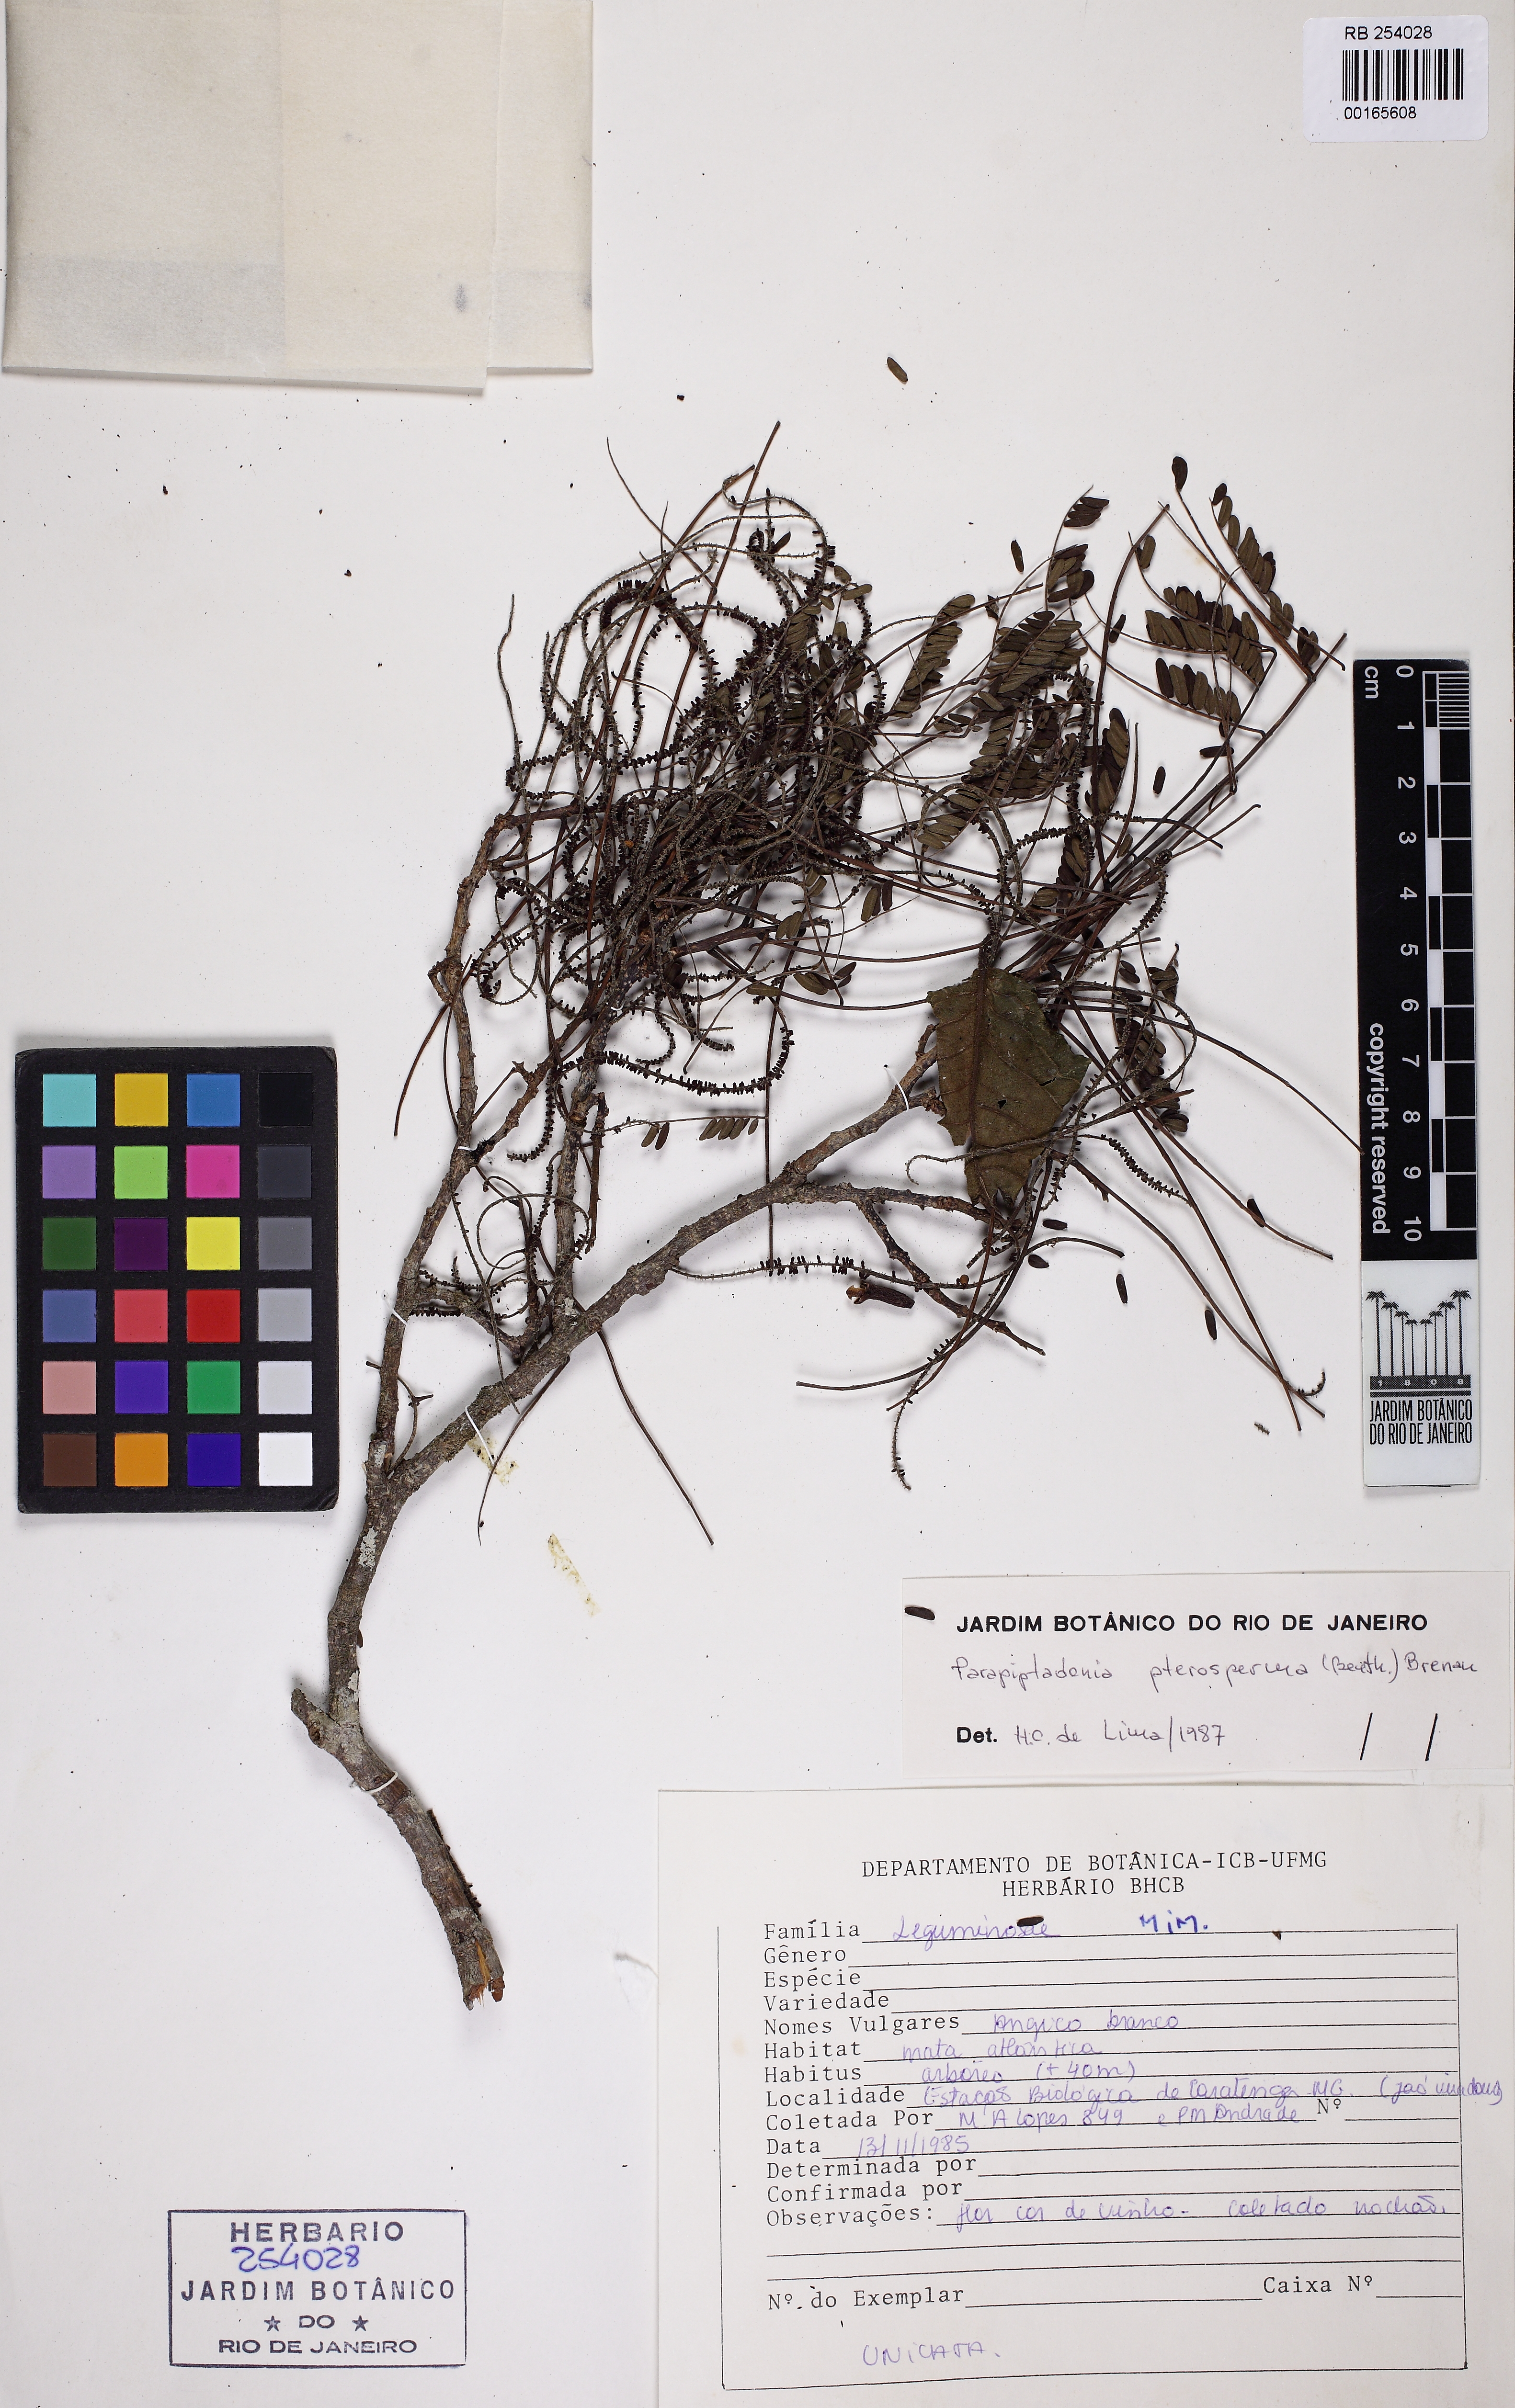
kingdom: Plantae
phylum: Tracheophyta
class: Magnoliopsida
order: Fabales
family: Fabaceae
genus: Parapiptadenia
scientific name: Parapiptadenia pterosperma
